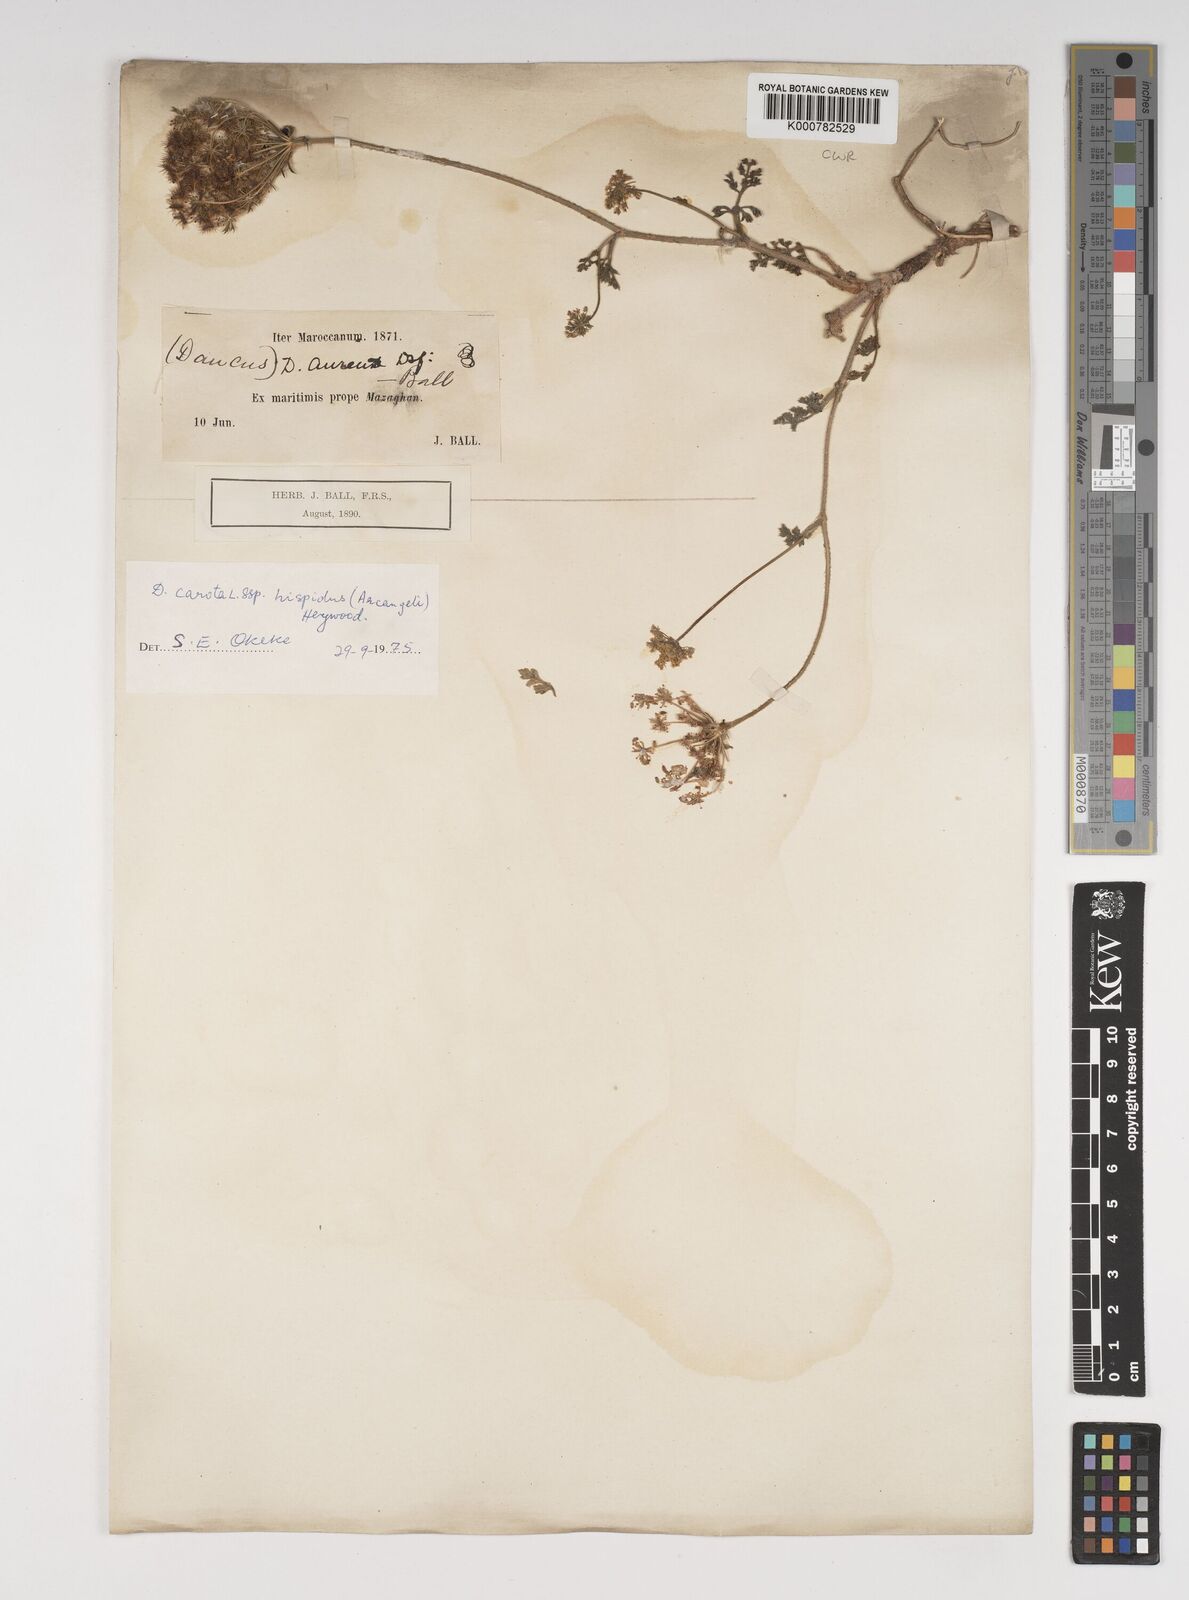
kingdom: Plantae
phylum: Tracheophyta
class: Magnoliopsida
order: Apiales
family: Apiaceae
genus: Daucus
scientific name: Daucus carota
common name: Wild carrot
